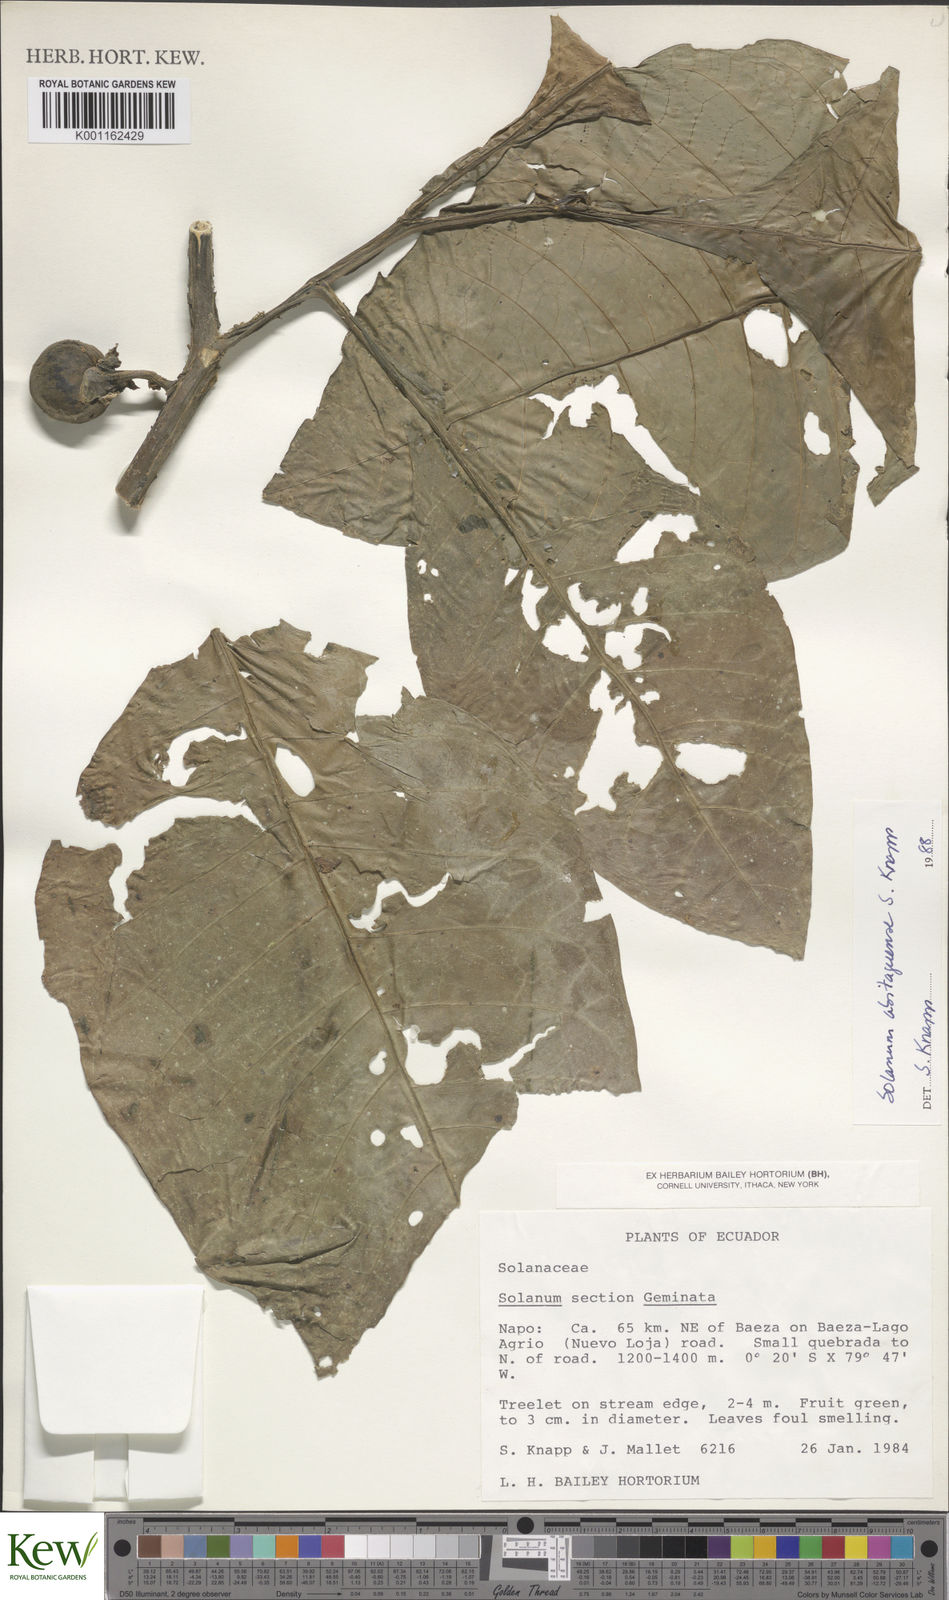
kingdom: Plantae
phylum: Tracheophyta
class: Magnoliopsida
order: Solanales
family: Solanaceae
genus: Solanum
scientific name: Solanum abitaguense
